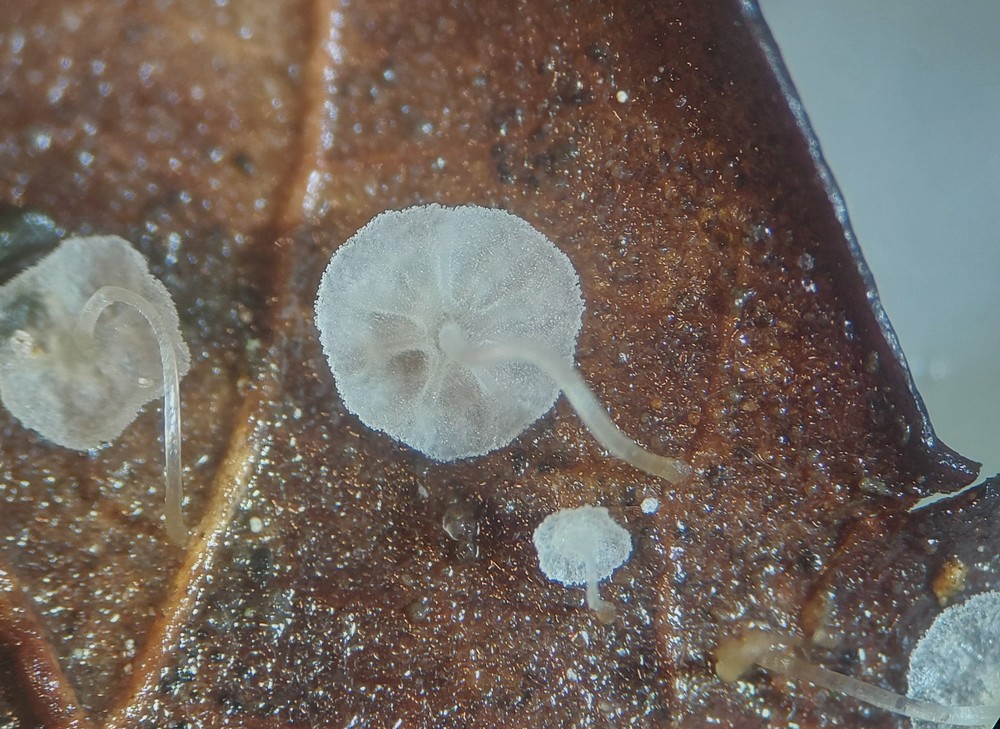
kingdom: Fungi
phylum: Basidiomycota
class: Agaricomycetes
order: Agaricales
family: Mycenaceae
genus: Mycena
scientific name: Mycena polyadelpha
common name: egeblads-huesvamp
